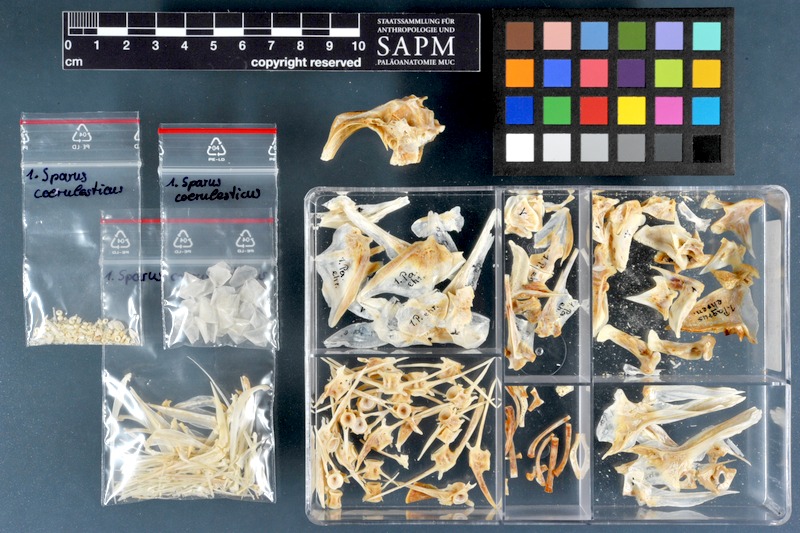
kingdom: Animalia
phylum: Chordata
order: Perciformes
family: Sparidae
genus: Pagrus
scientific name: Pagrus caeruleostictus
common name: Bluespotted seabream
